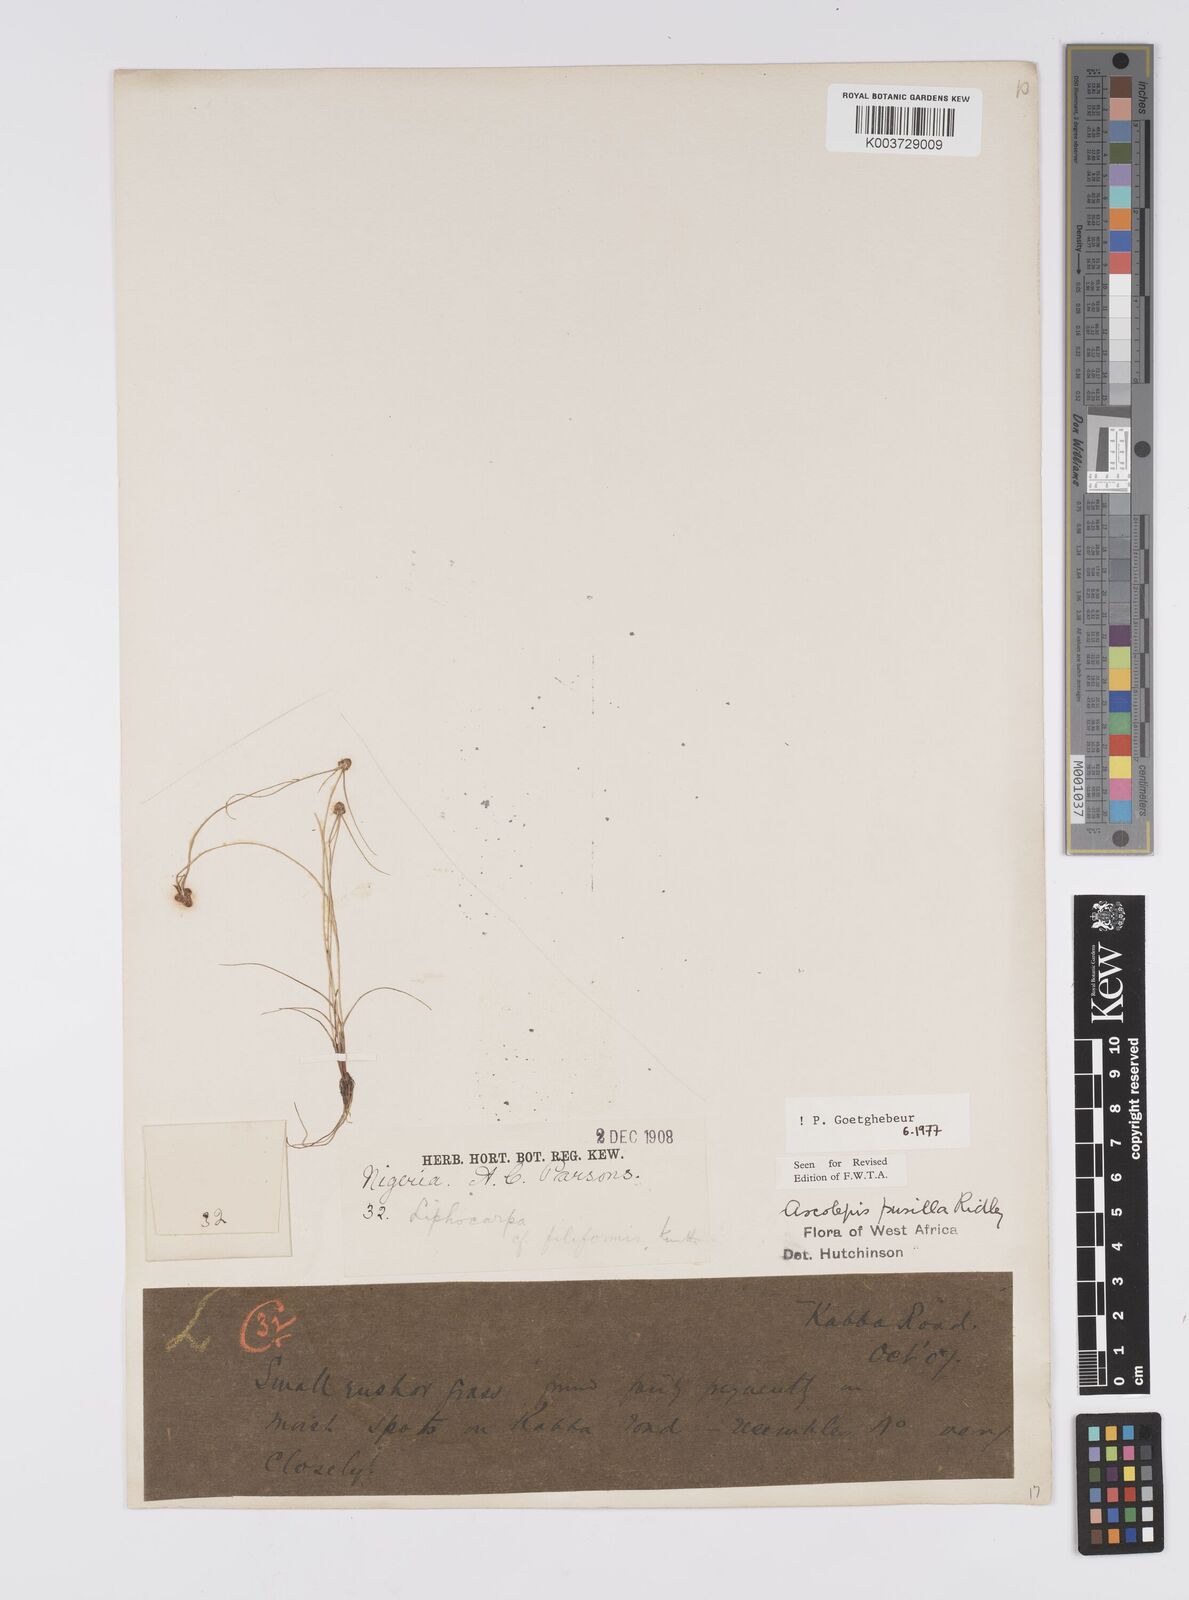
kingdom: Plantae
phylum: Tracheophyta
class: Liliopsida
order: Poales
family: Cyperaceae
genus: Ascolepis
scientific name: Ascolepis
